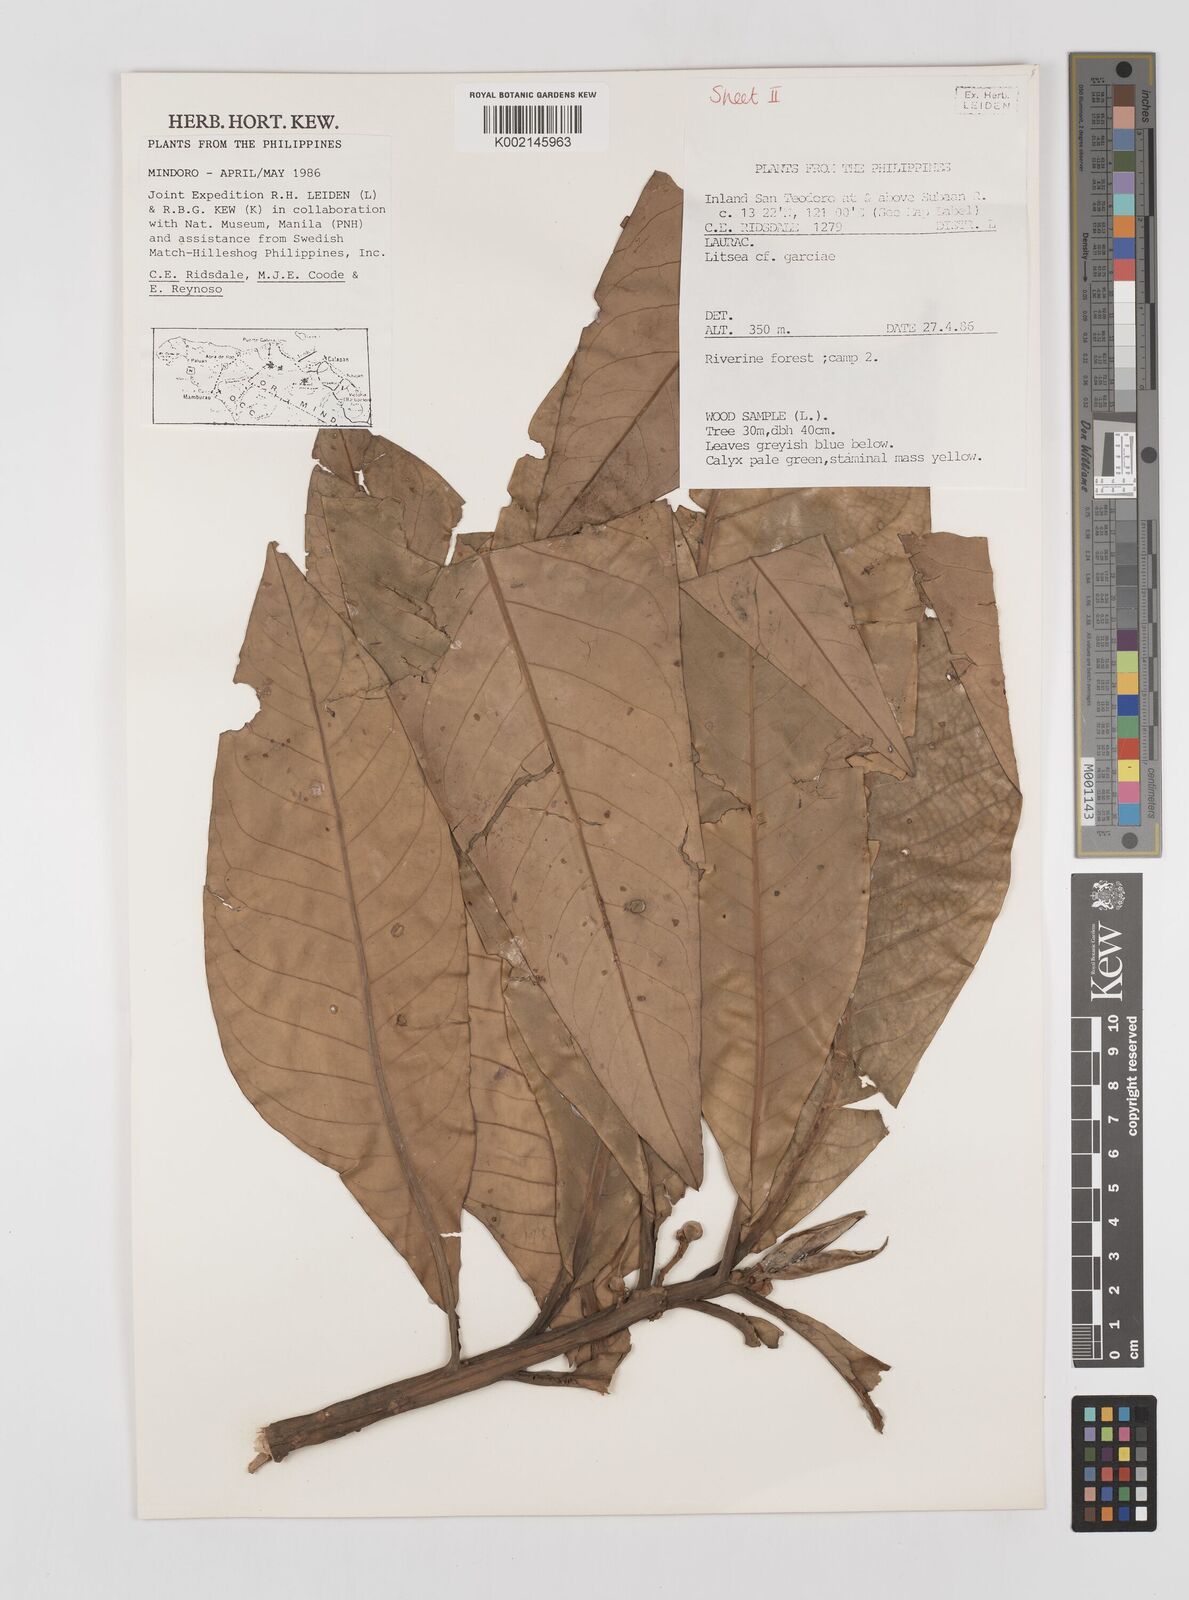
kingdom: Plantae
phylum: Tracheophyta
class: Magnoliopsida
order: Laurales
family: Lauraceae
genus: Litsea
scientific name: Litsea garciae
